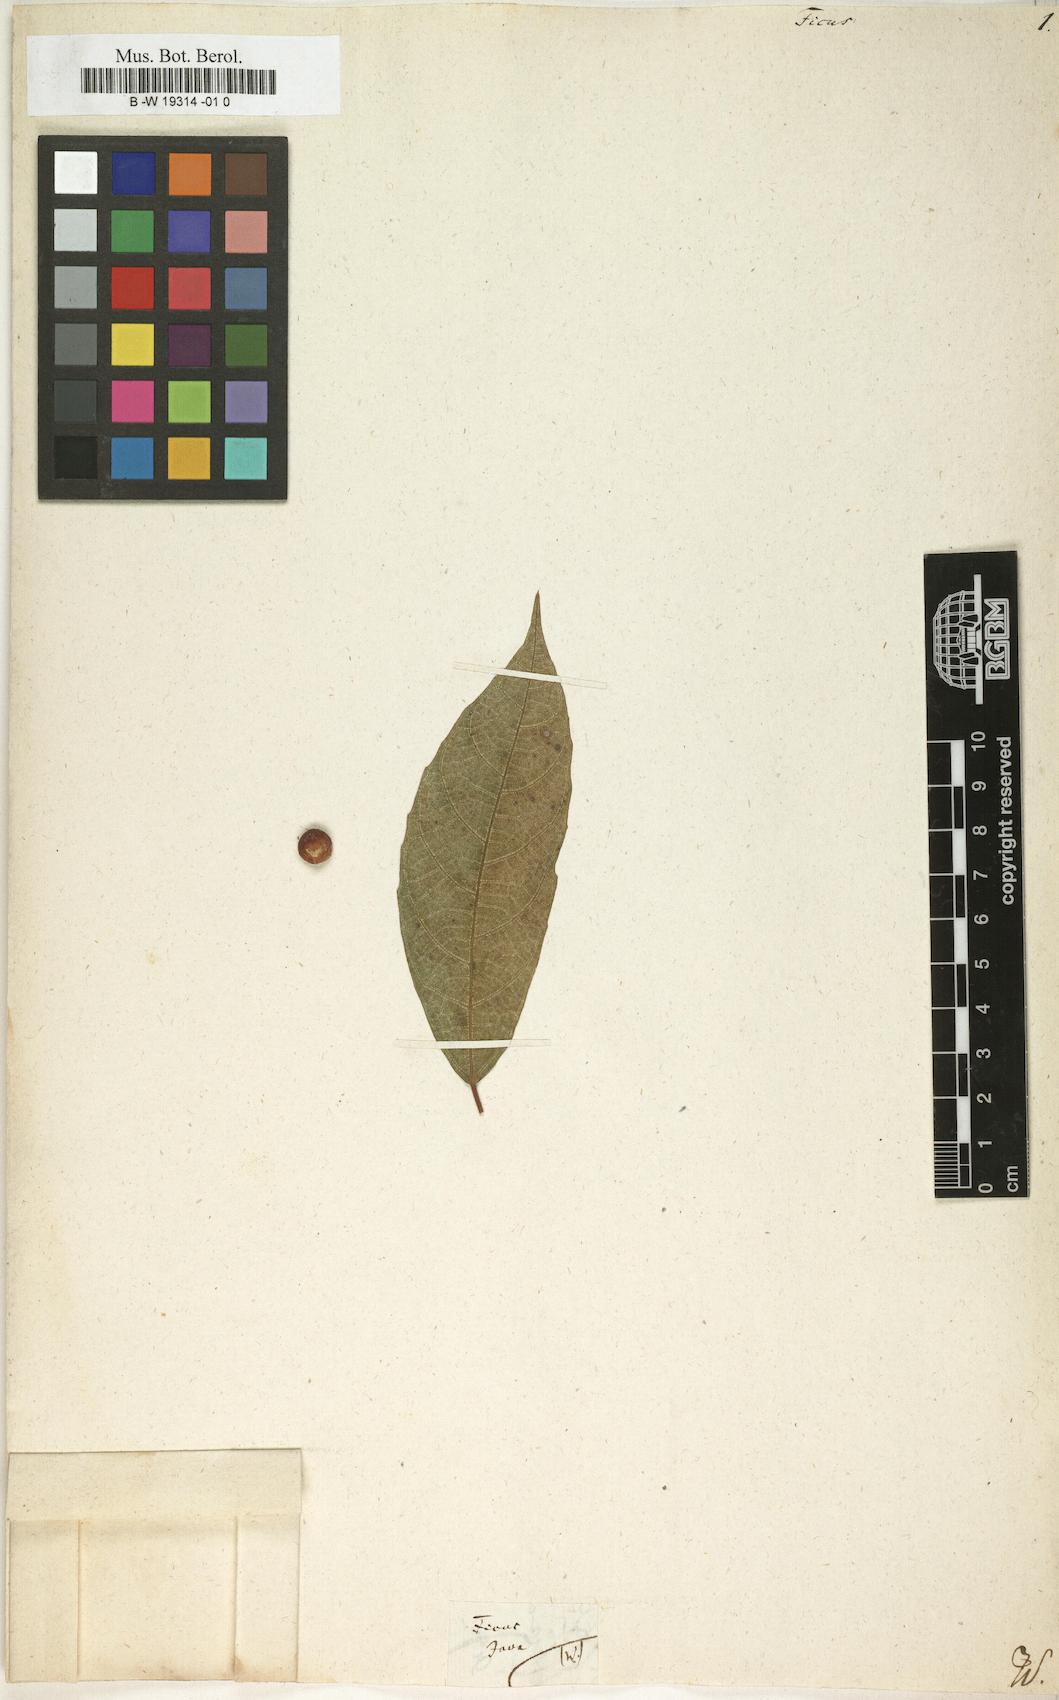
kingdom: Plantae
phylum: Tracheophyta
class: Magnoliopsida
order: Rosales
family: Moraceae
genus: Ficus
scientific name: Ficus
